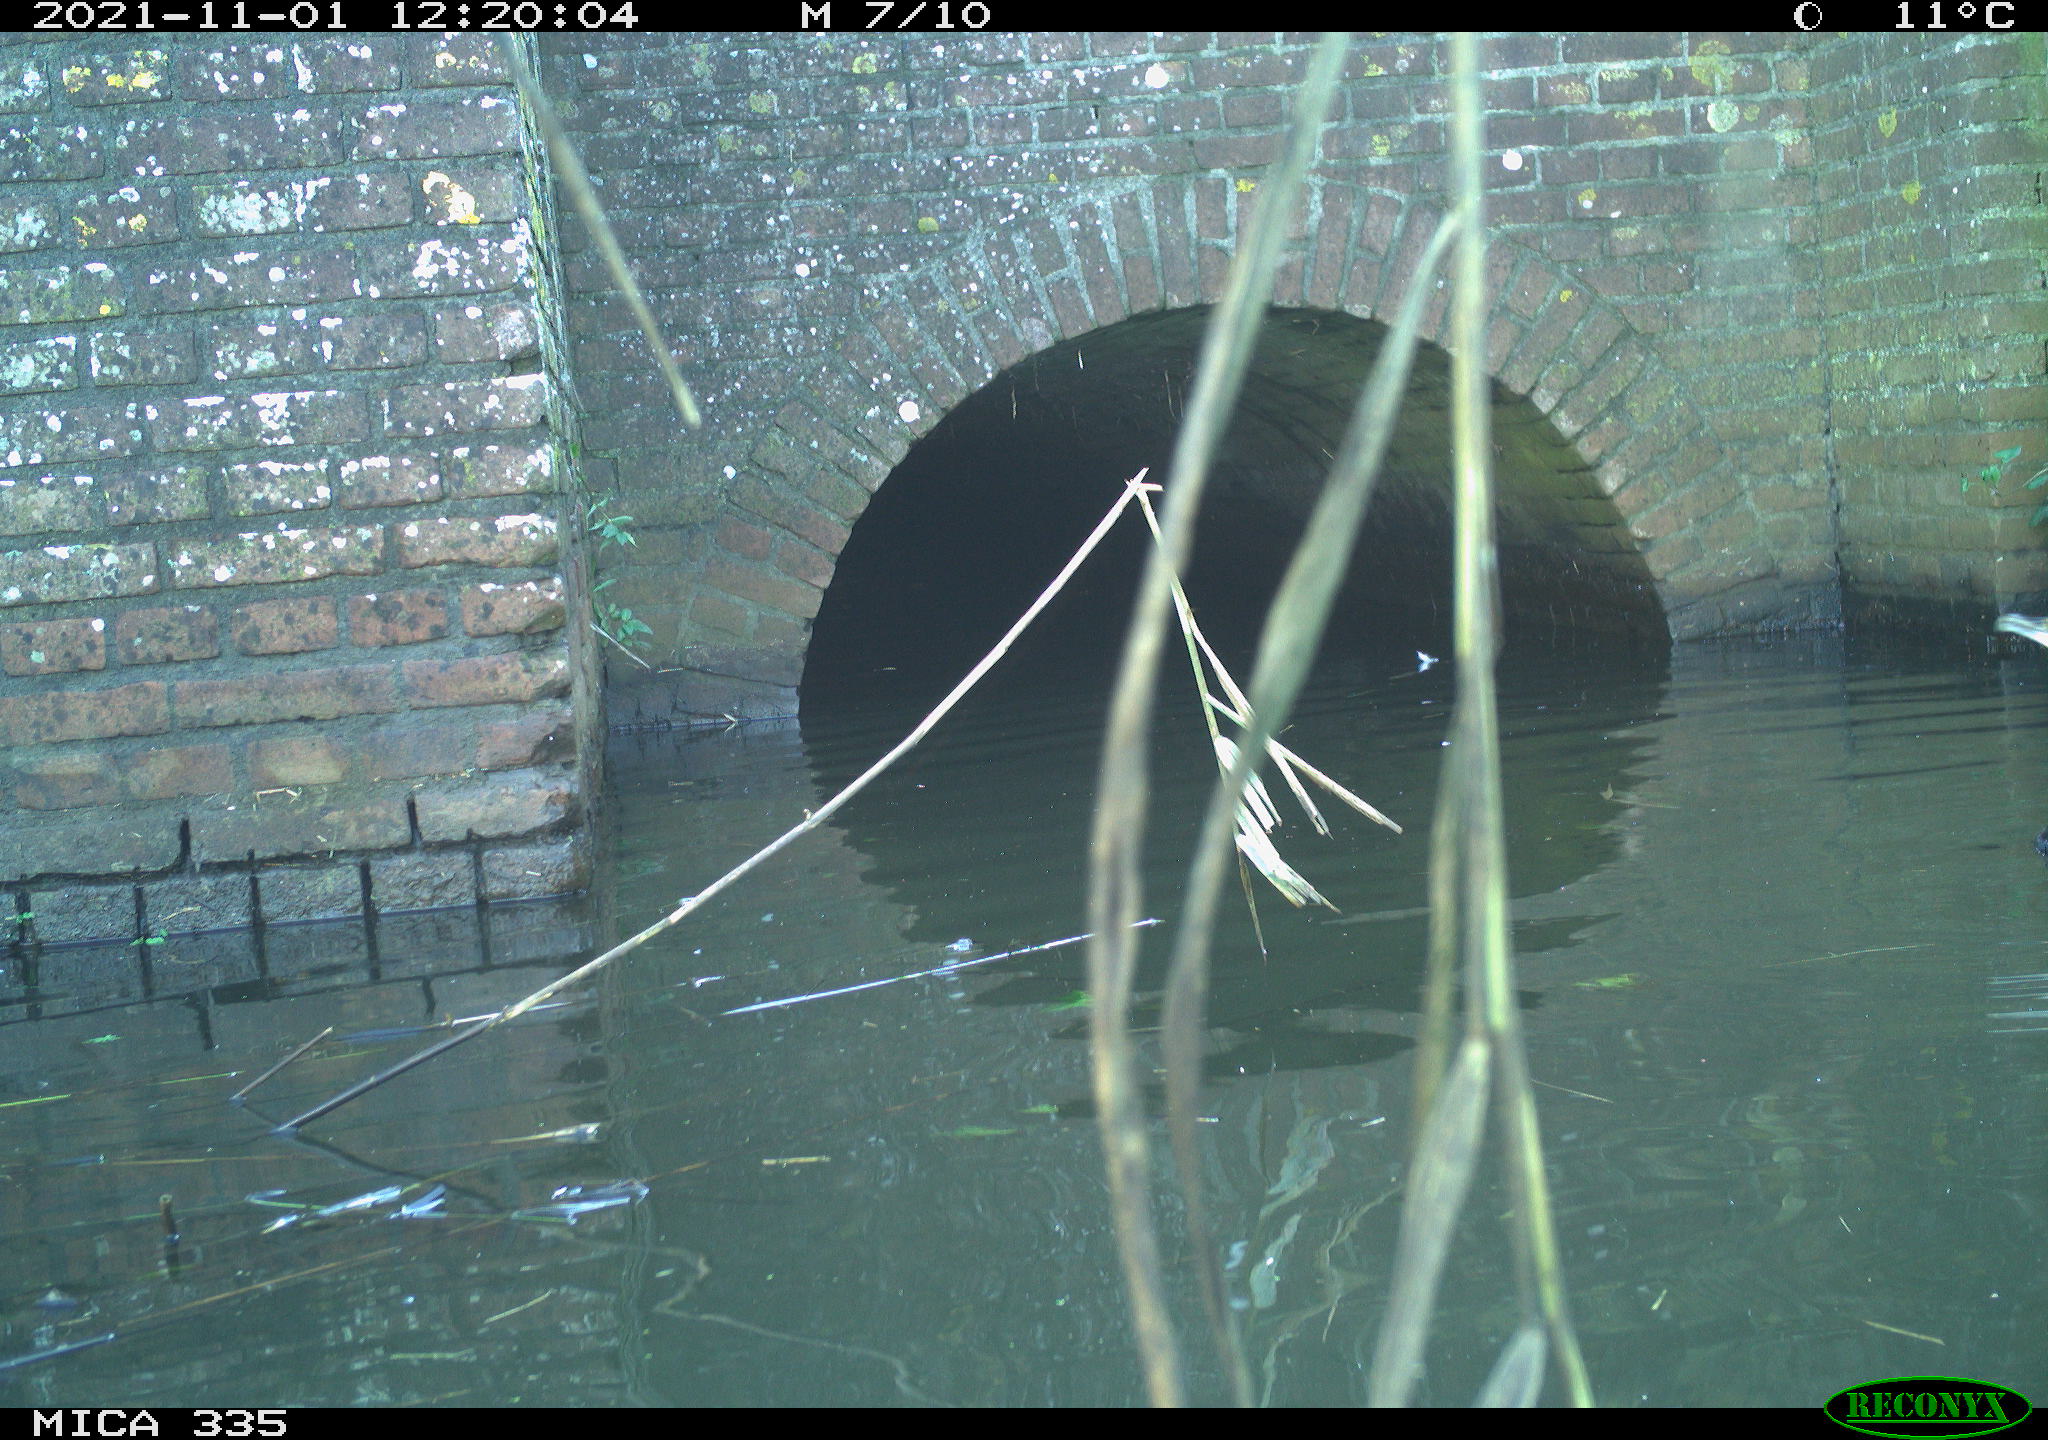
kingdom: Animalia
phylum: Chordata
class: Aves
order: Suliformes
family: Phalacrocoracidae
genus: Phalacrocorax
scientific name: Phalacrocorax carbo
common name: Great cormorant
